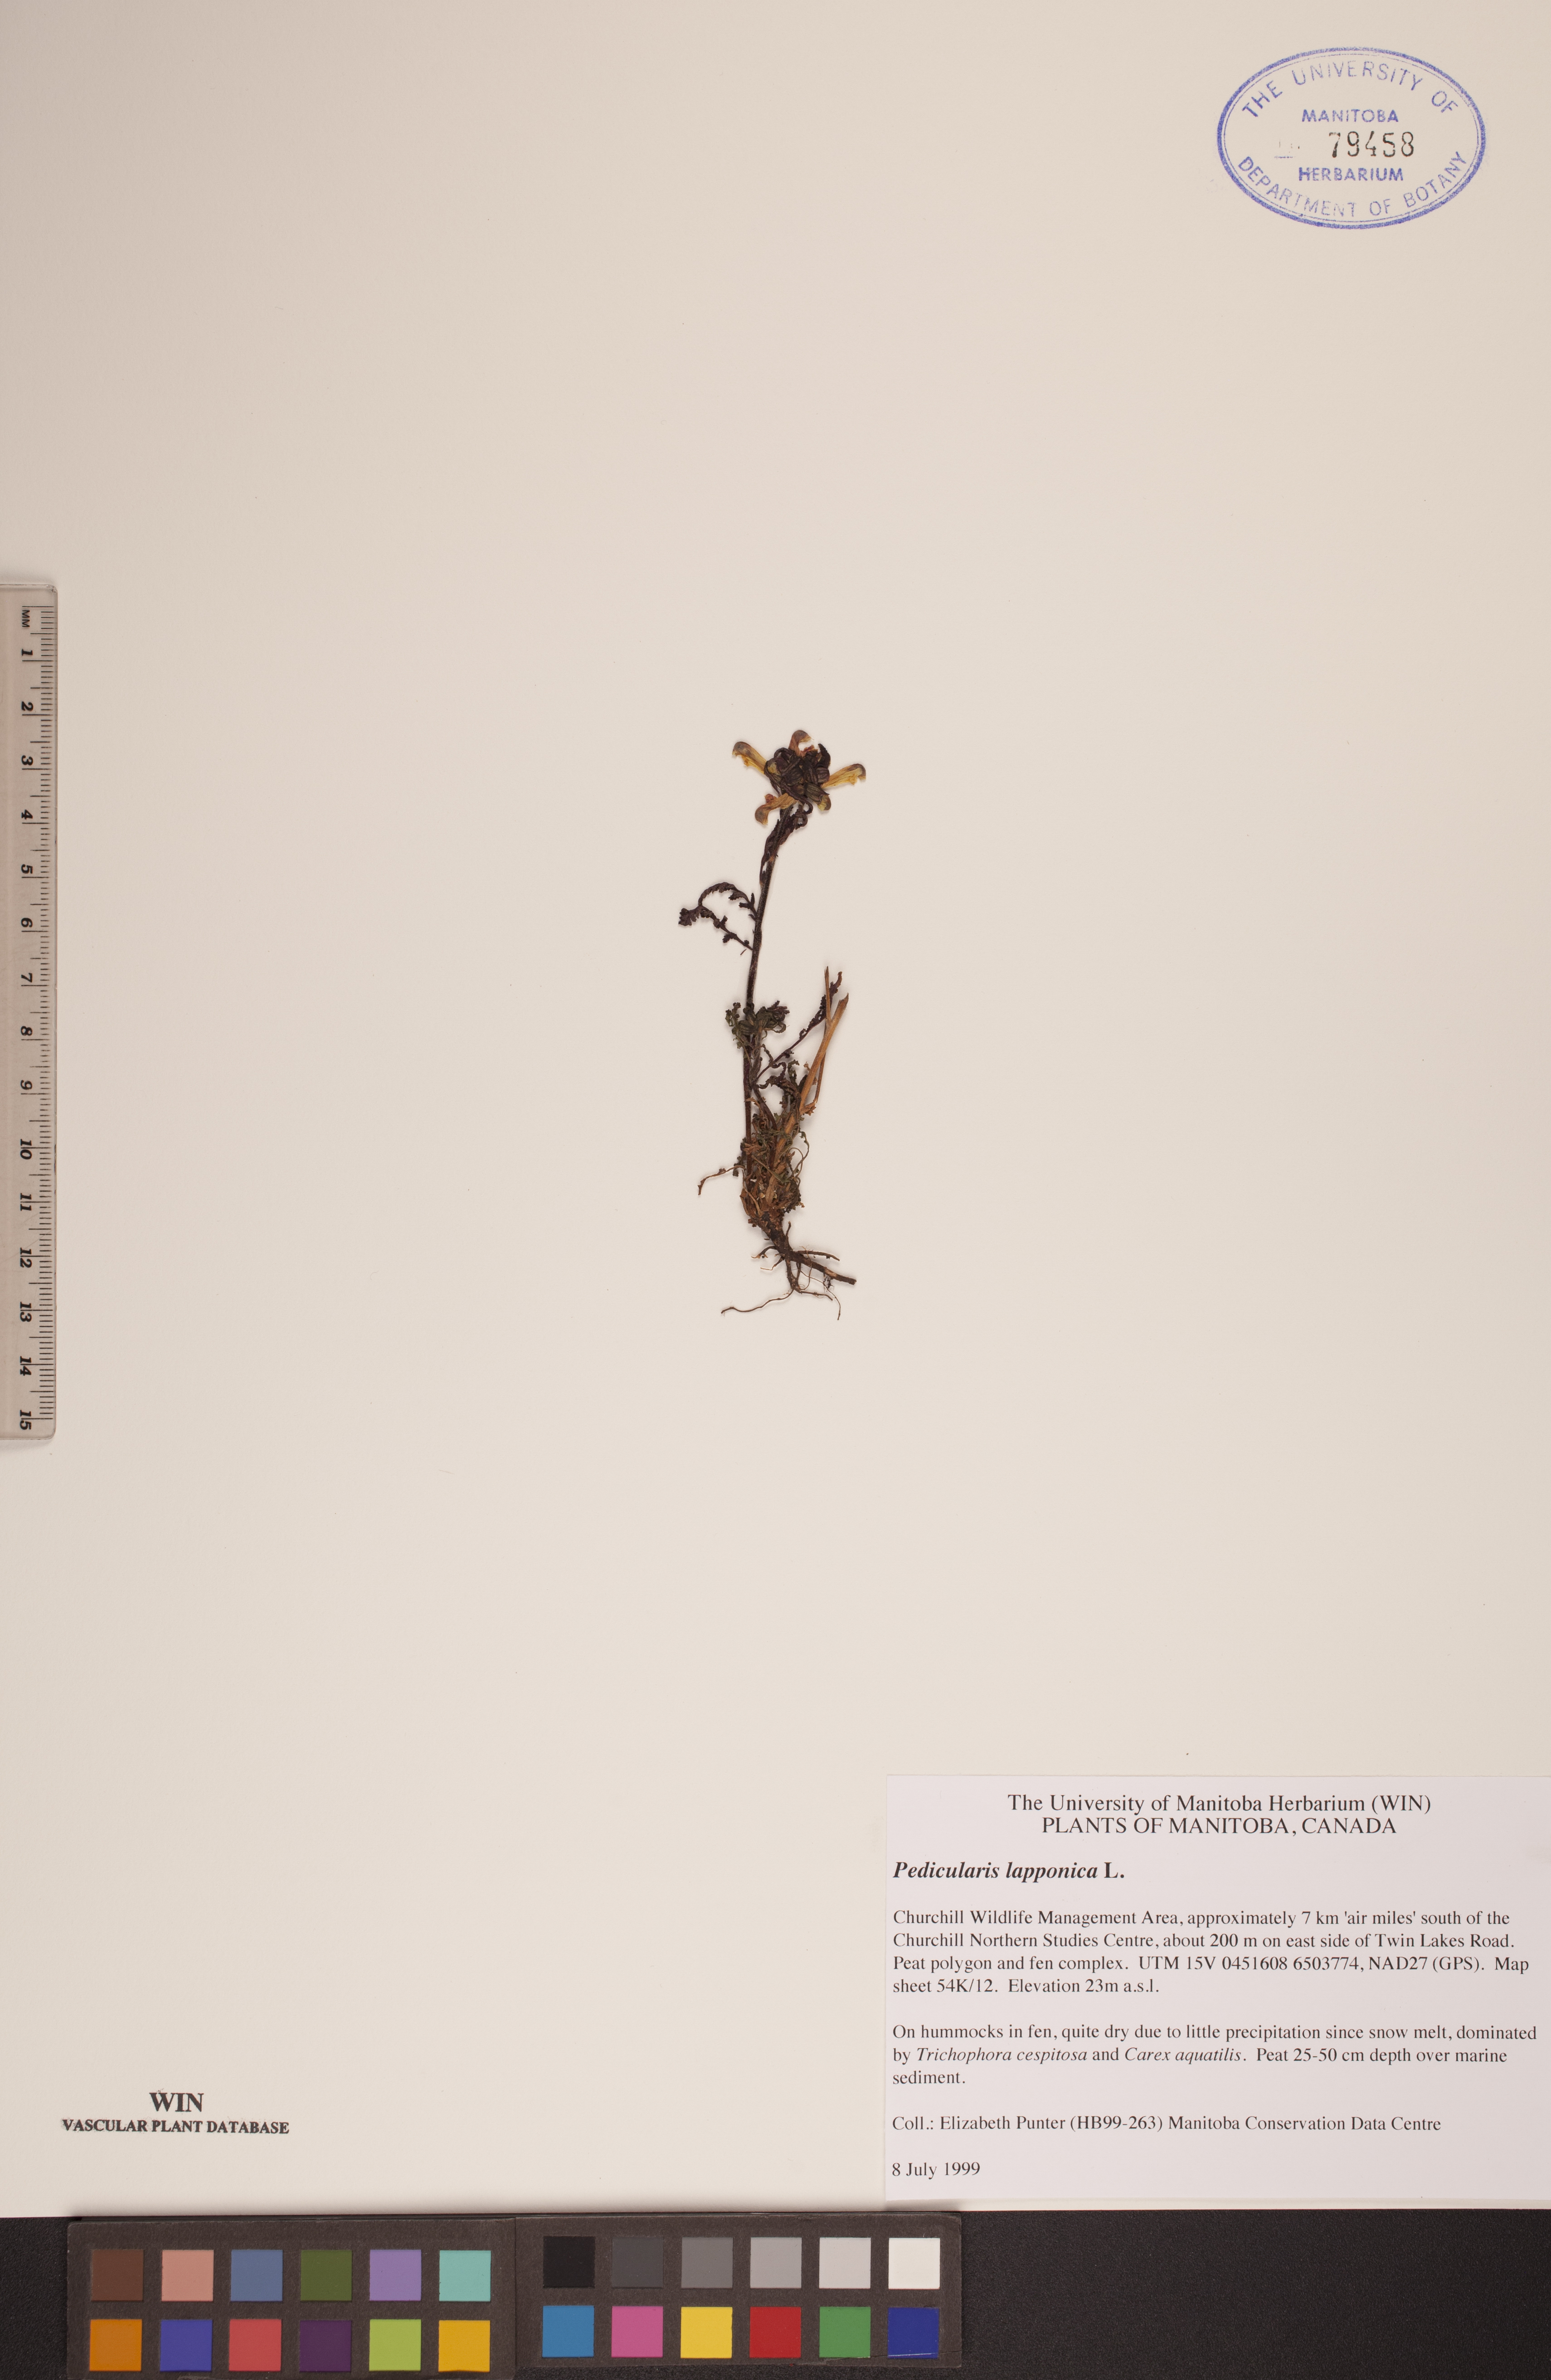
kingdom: Plantae
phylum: Tracheophyta
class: Magnoliopsida
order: Lamiales
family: Orobanchaceae
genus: Pedicularis
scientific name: Pedicularis lapponica
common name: Lapland lousewort
